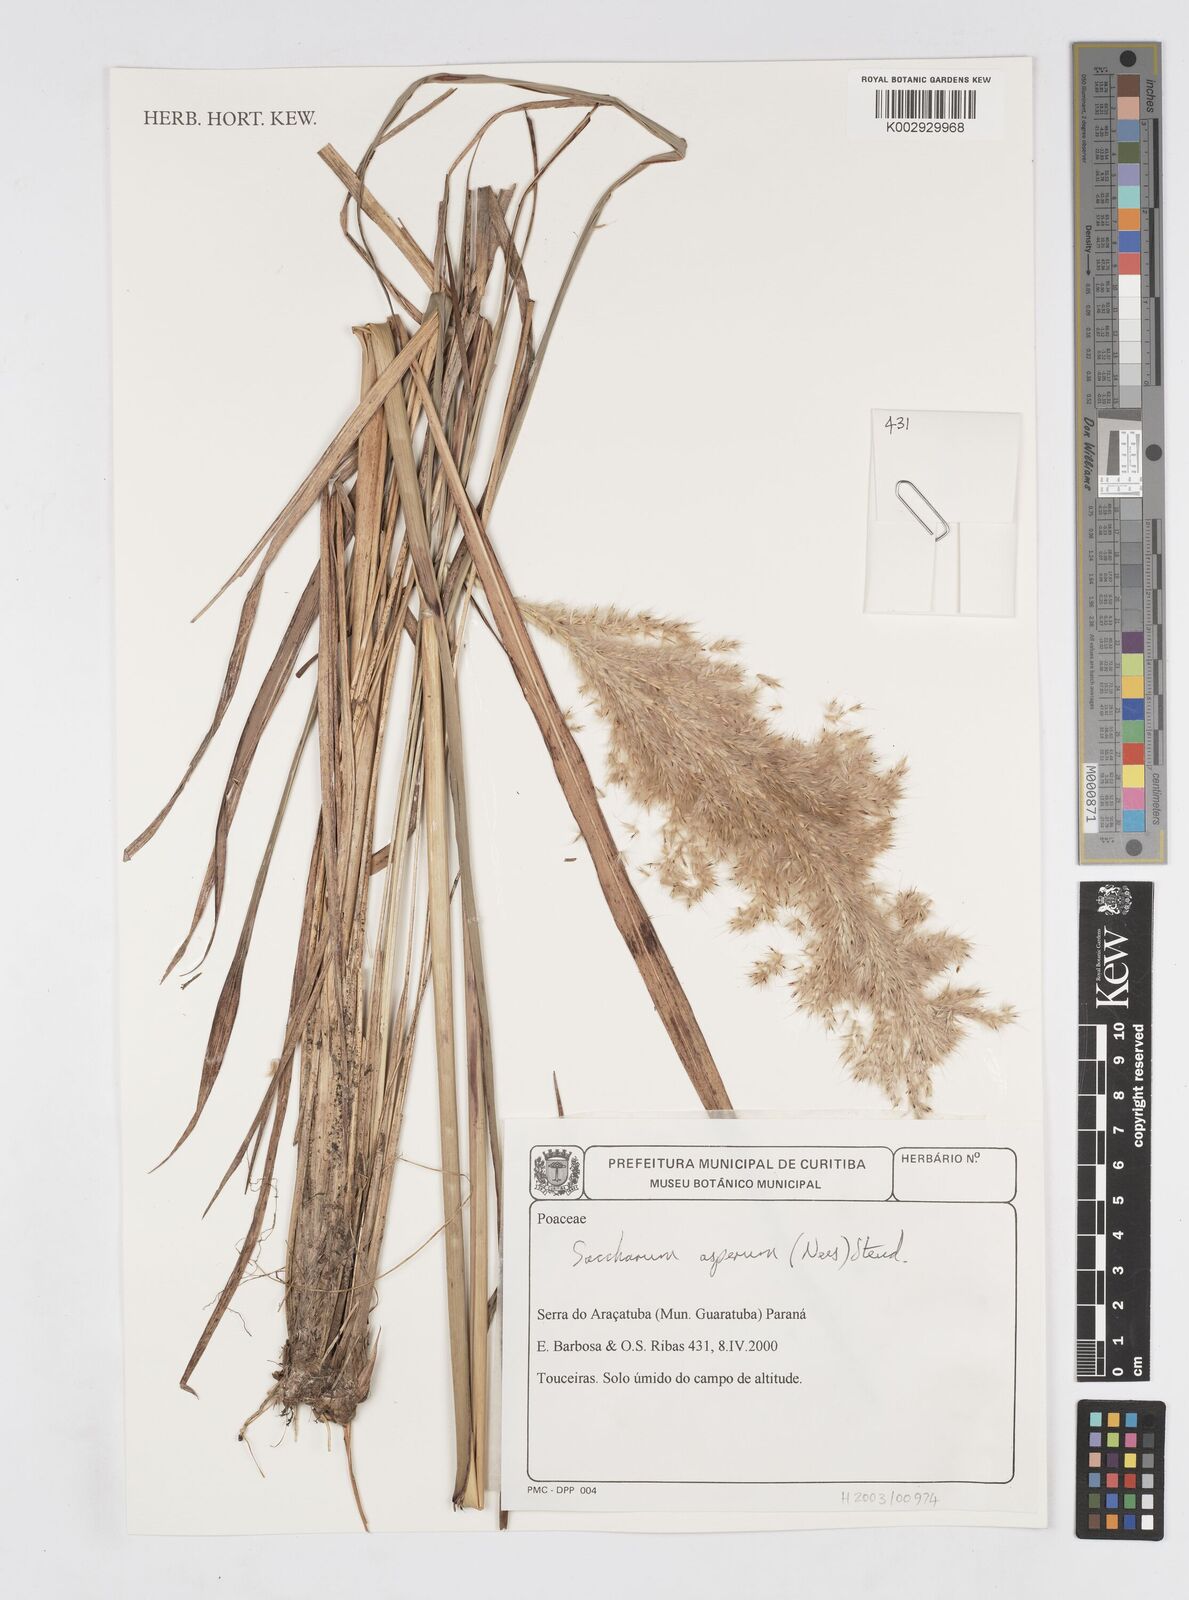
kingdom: Plantae
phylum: Tracheophyta
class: Liliopsida
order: Poales
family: Poaceae
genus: Erianthus
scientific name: Erianthus asper
